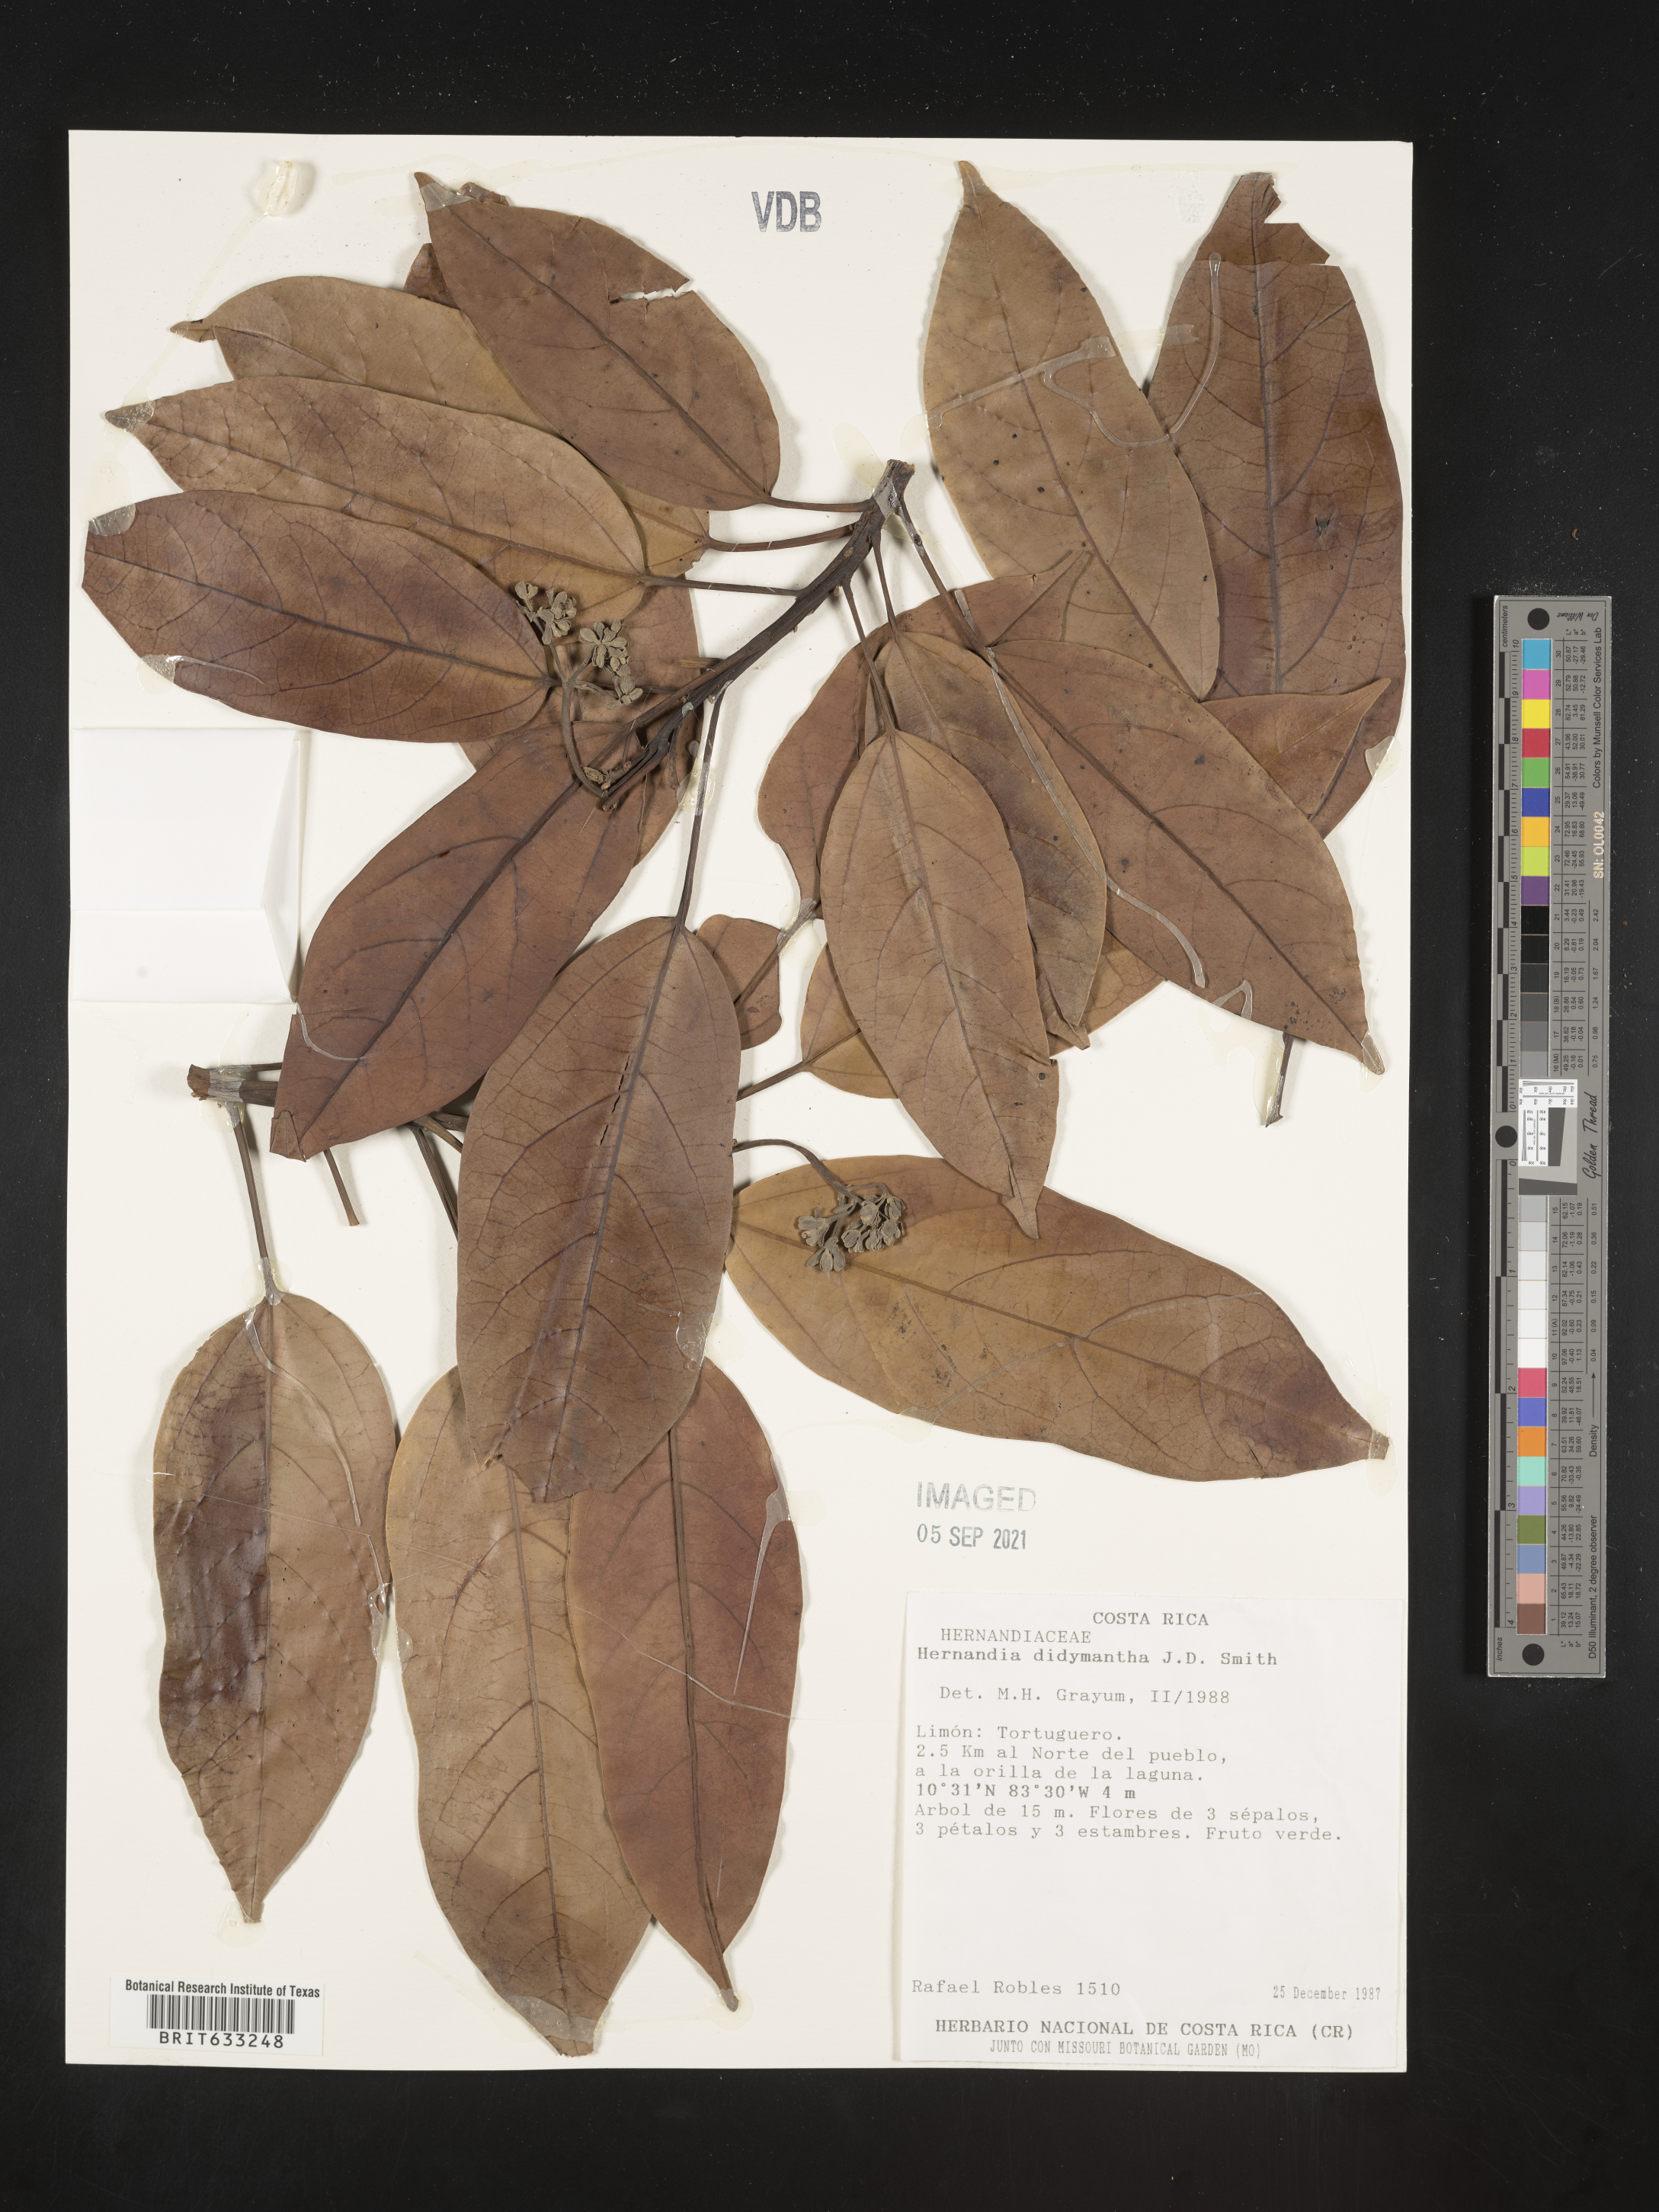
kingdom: Plantae
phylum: Tracheophyta
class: Magnoliopsida
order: Laurales
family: Hernandiaceae
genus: Hernandia
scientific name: Hernandia
